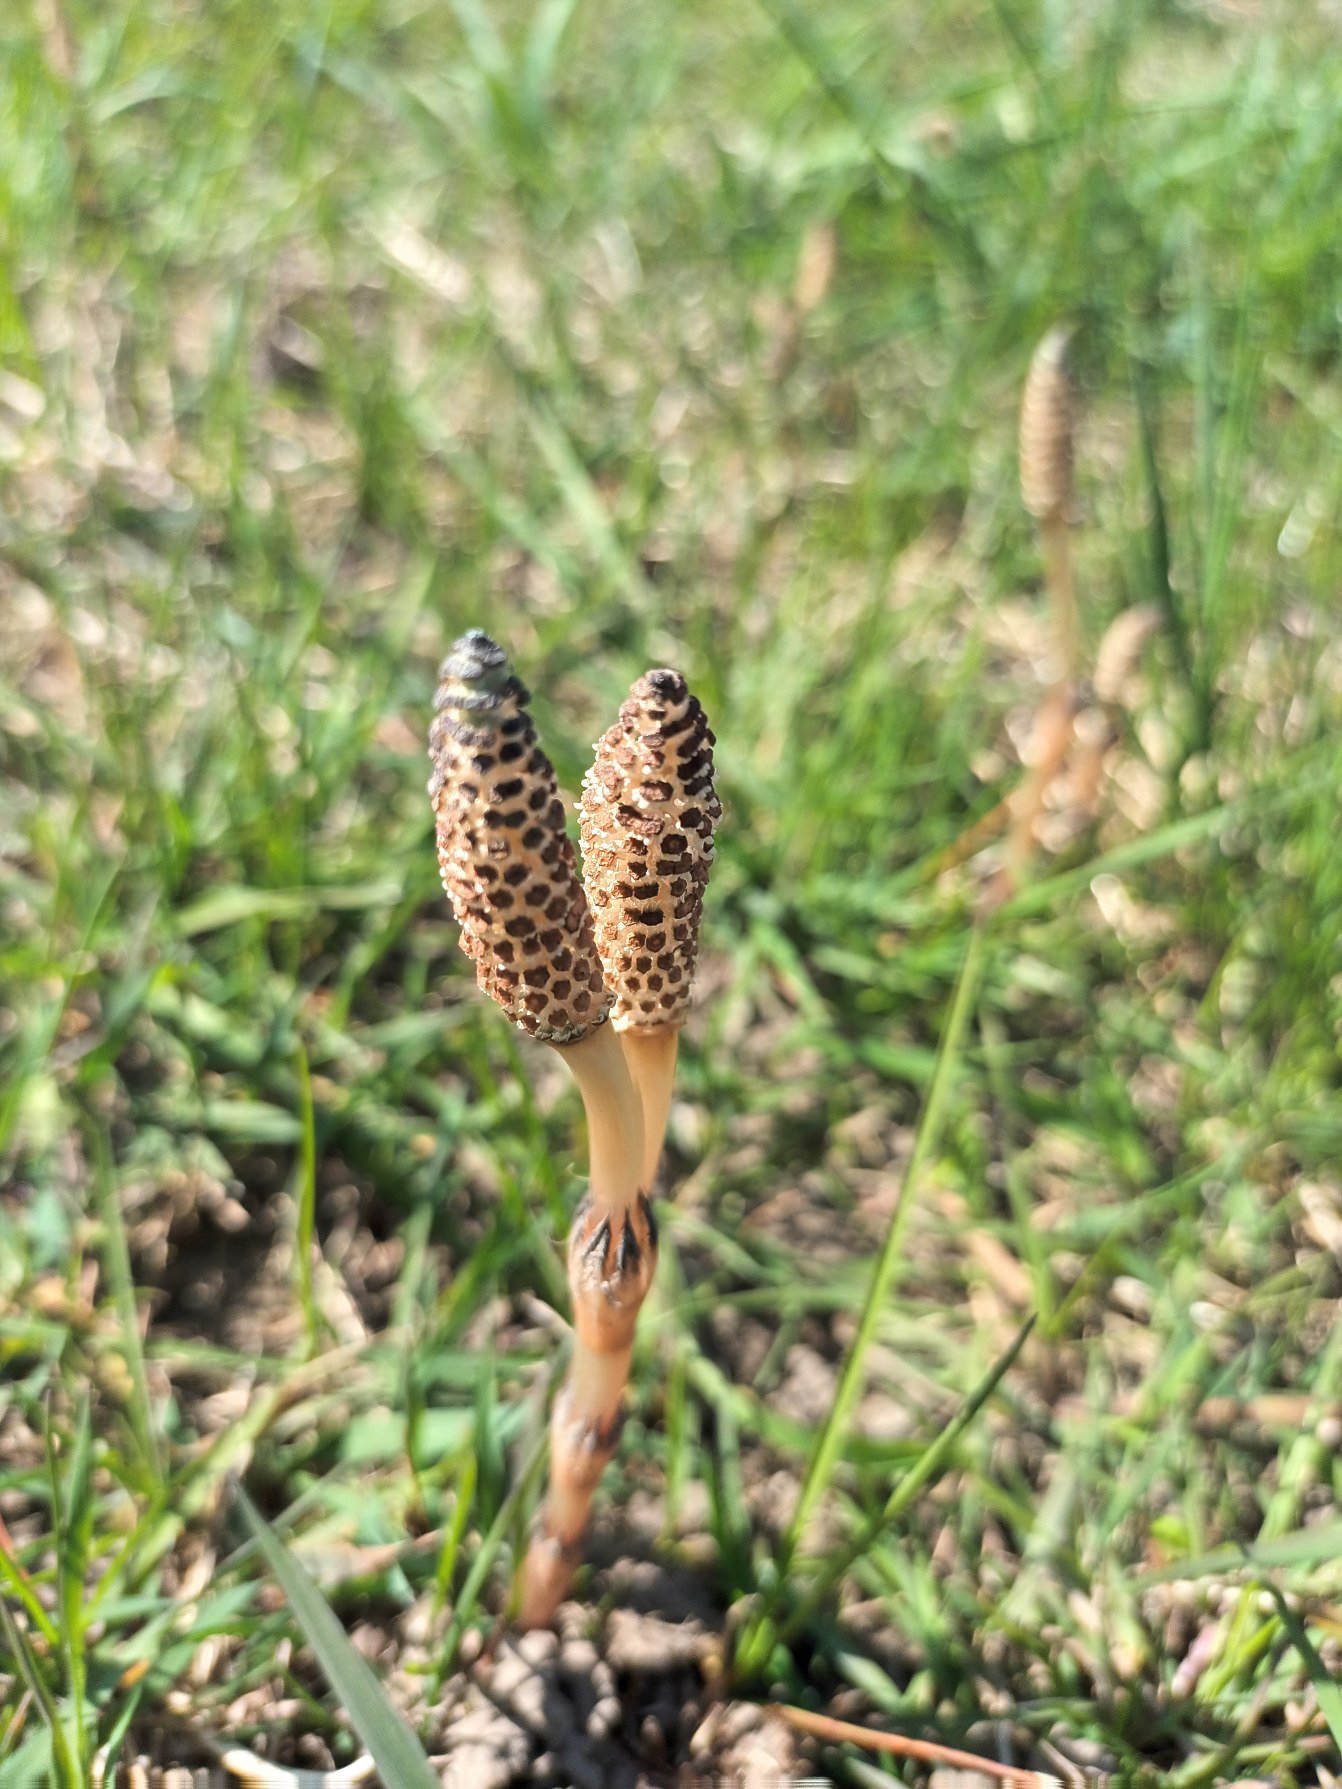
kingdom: Plantae
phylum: Tracheophyta
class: Polypodiopsida
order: Equisetales
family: Equisetaceae
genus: Equisetum
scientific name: Equisetum arvense
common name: Ager-padderok
